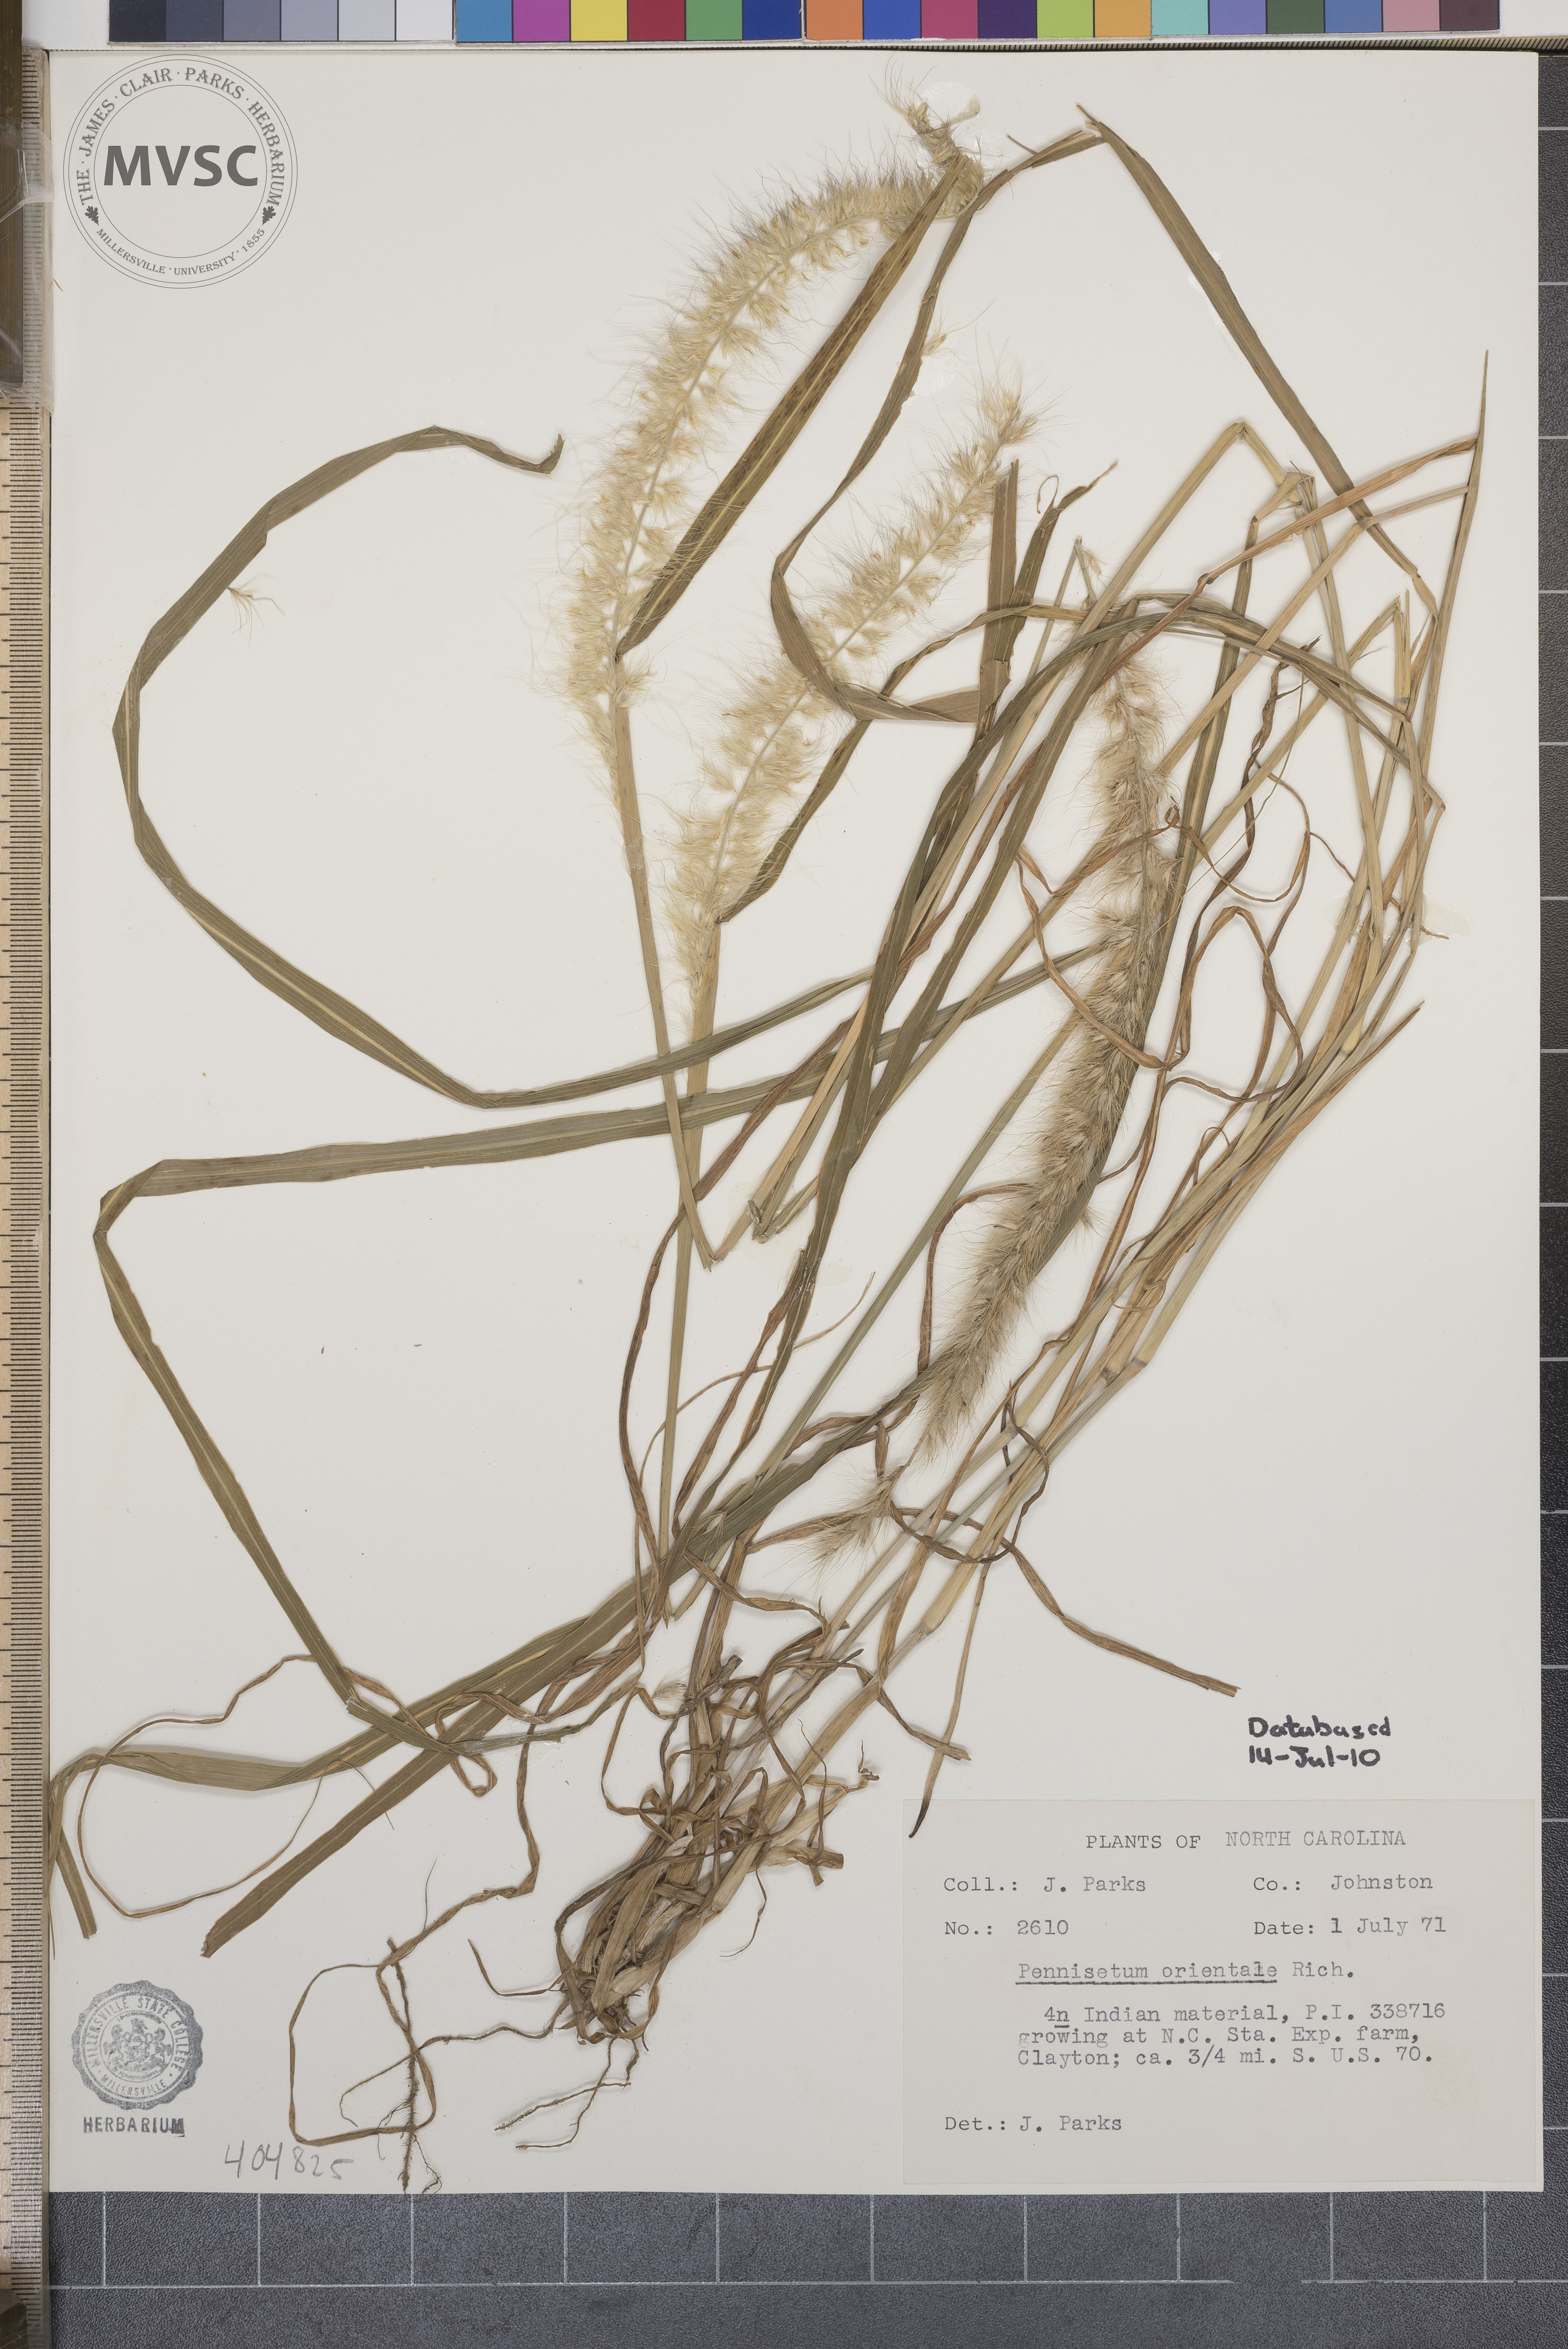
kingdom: Plantae
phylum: Tracheophyta
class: Liliopsida
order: Poales
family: Poaceae
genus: Cenchrus
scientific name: Cenchrus orientalis
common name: Oriental fountain grass
